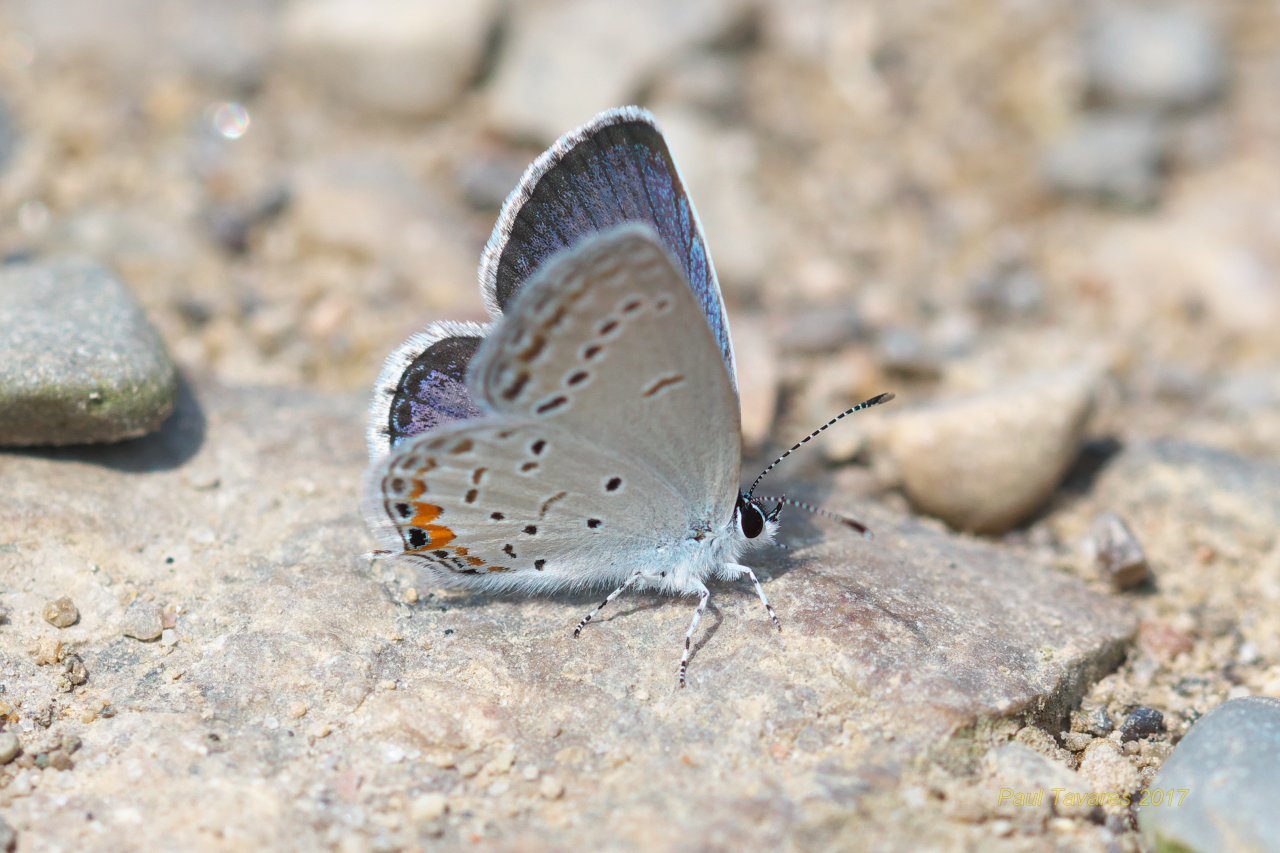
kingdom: Animalia
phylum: Arthropoda
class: Insecta
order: Lepidoptera
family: Lycaenidae
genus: Elkalyce
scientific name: Elkalyce comyntas
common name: Eastern Tailed-Blue
